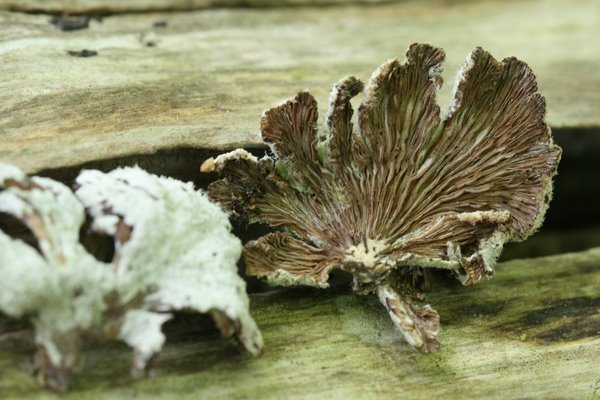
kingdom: Fungi
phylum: Basidiomycota
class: Agaricomycetes
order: Agaricales
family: Schizophyllaceae
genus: Schizophyllum
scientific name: Schizophyllum commune
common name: kløvblad
